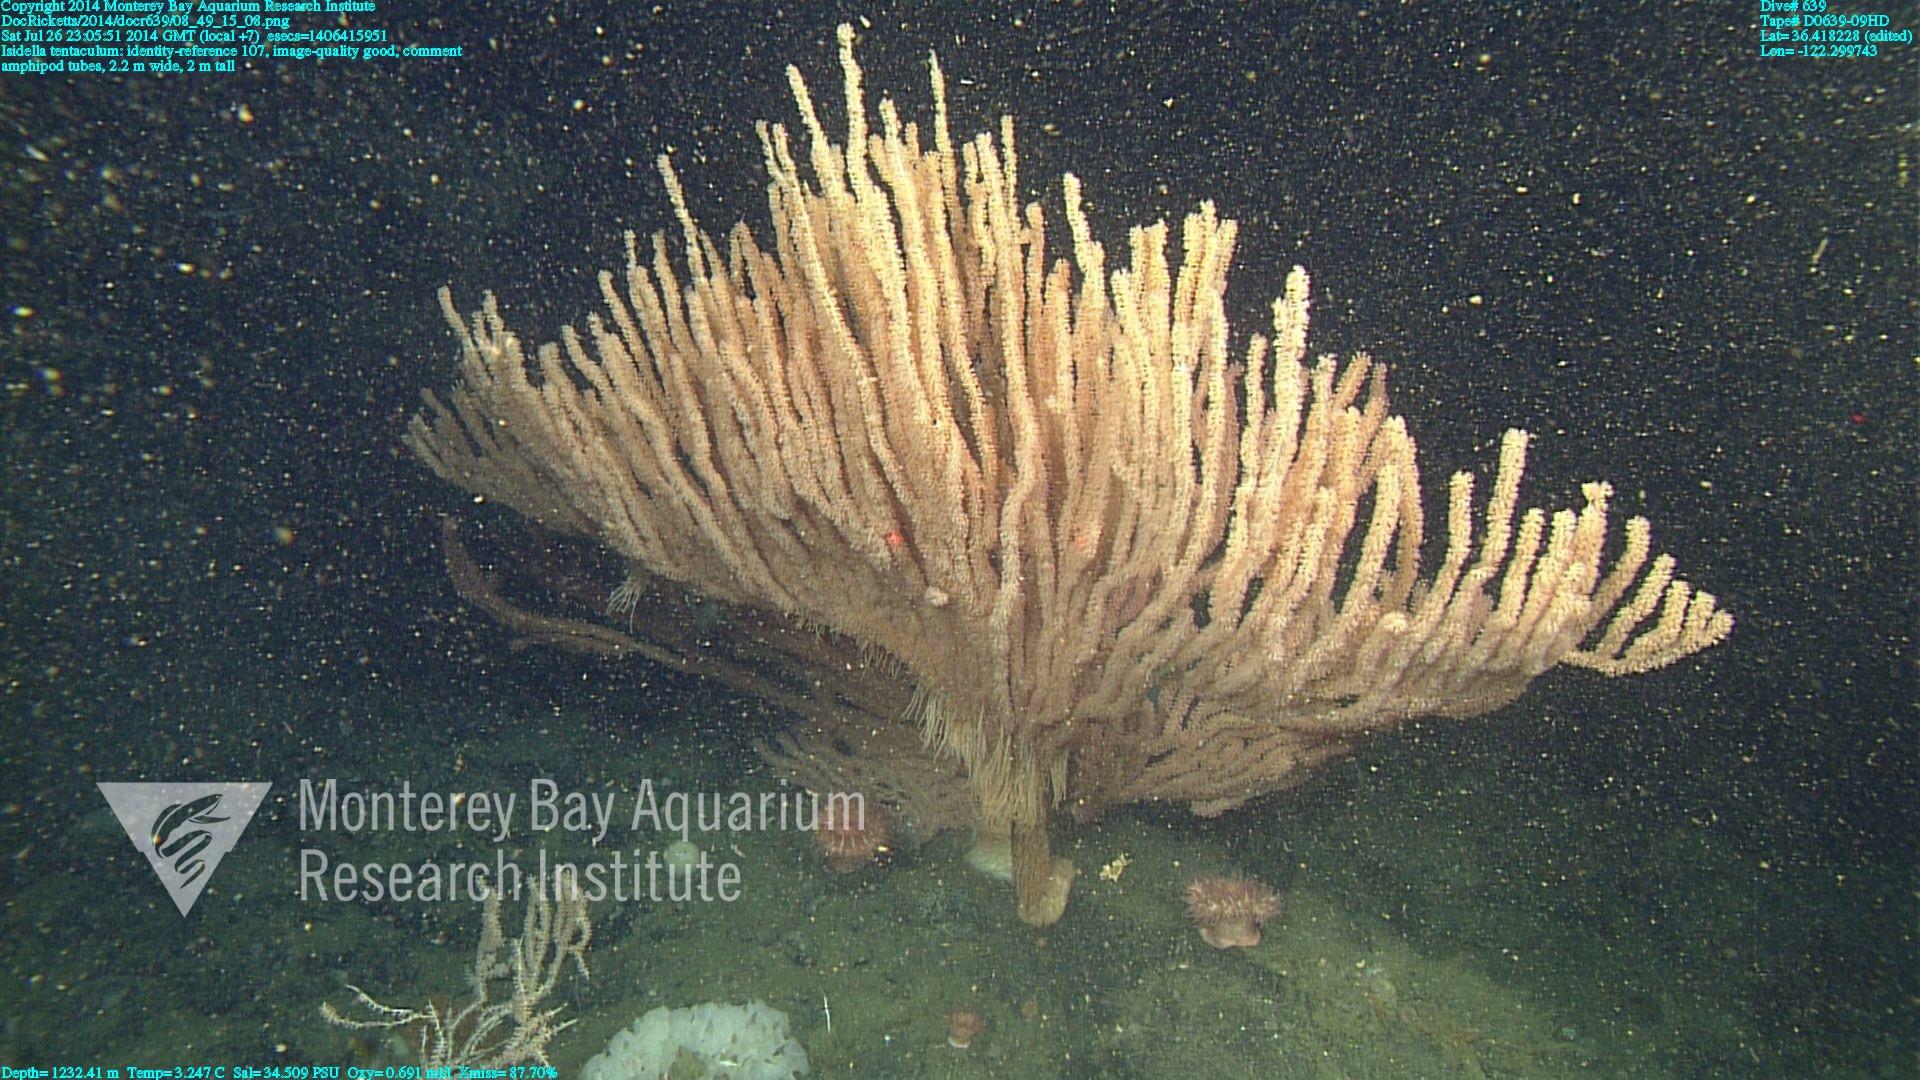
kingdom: Animalia
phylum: Cnidaria
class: Anthozoa
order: Scleralcyonacea
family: Keratoisididae
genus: Isidella
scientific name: Isidella tentaculum
